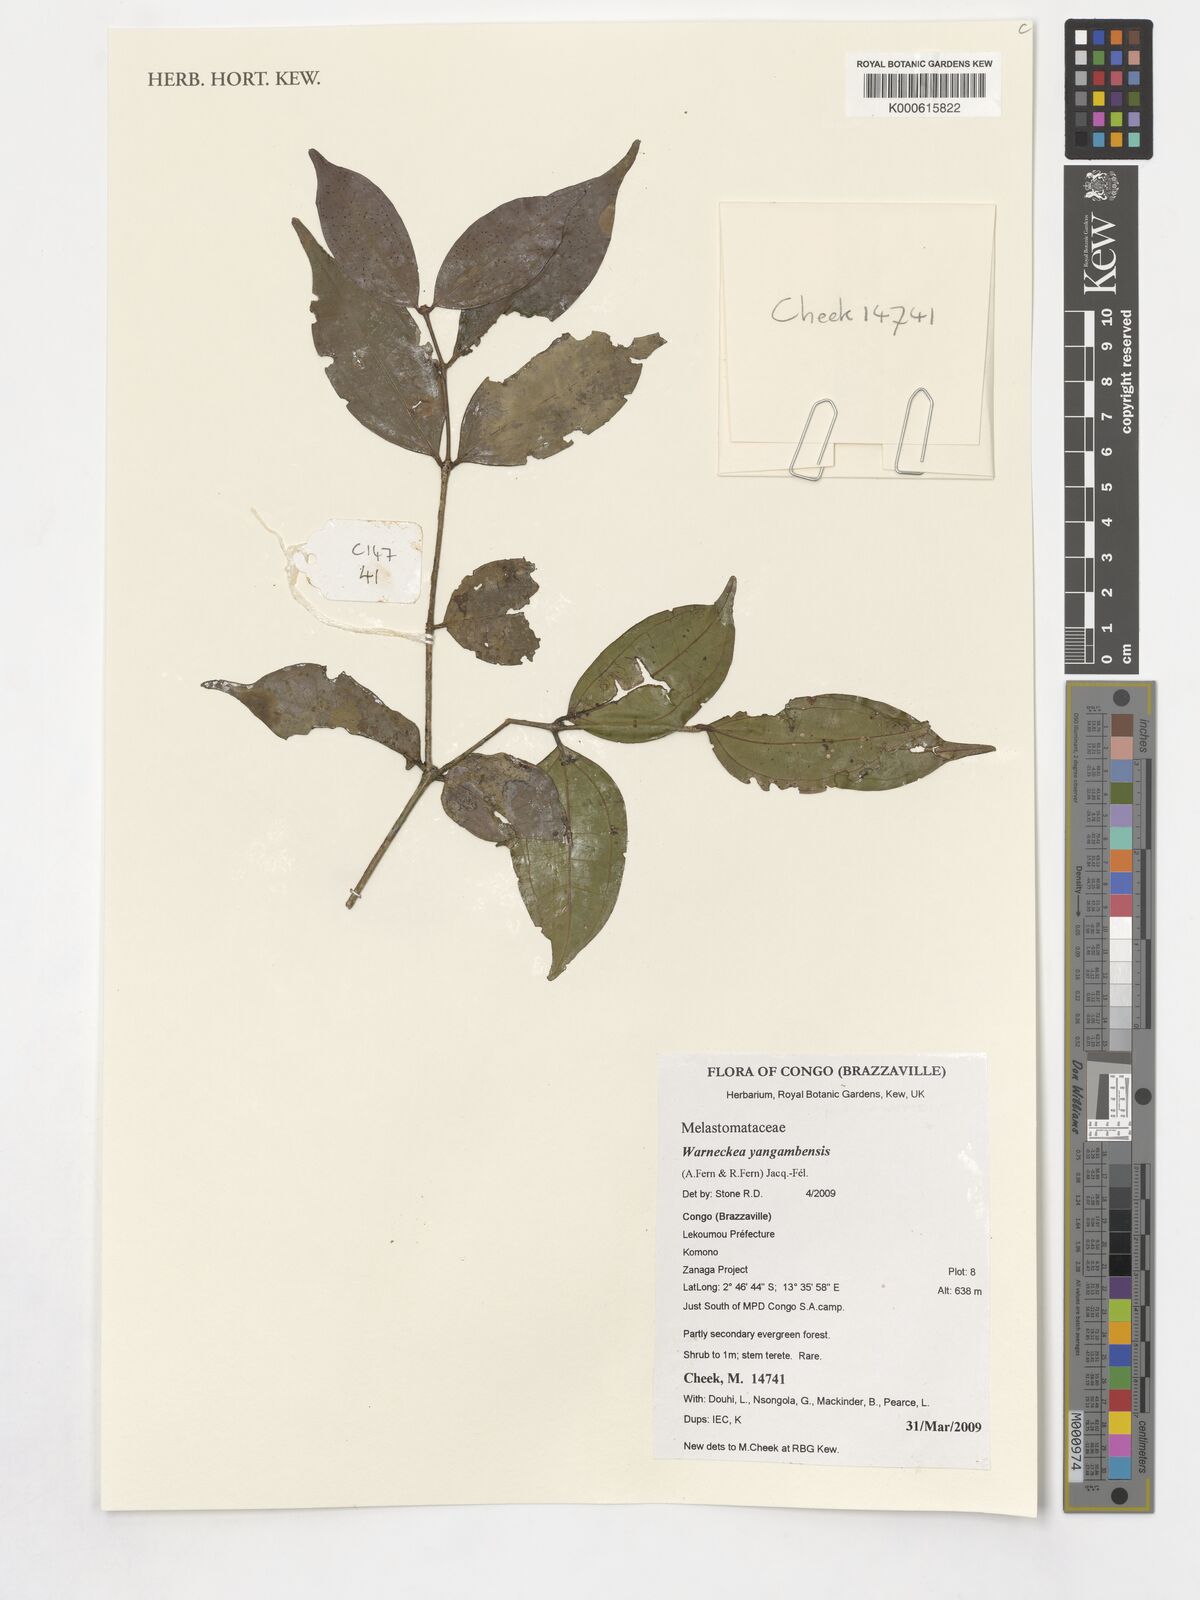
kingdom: Plantae
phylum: Tracheophyta
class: Magnoliopsida
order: Myrtales
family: Melastomataceae
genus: Warneckea
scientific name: Warneckea yangambensis
